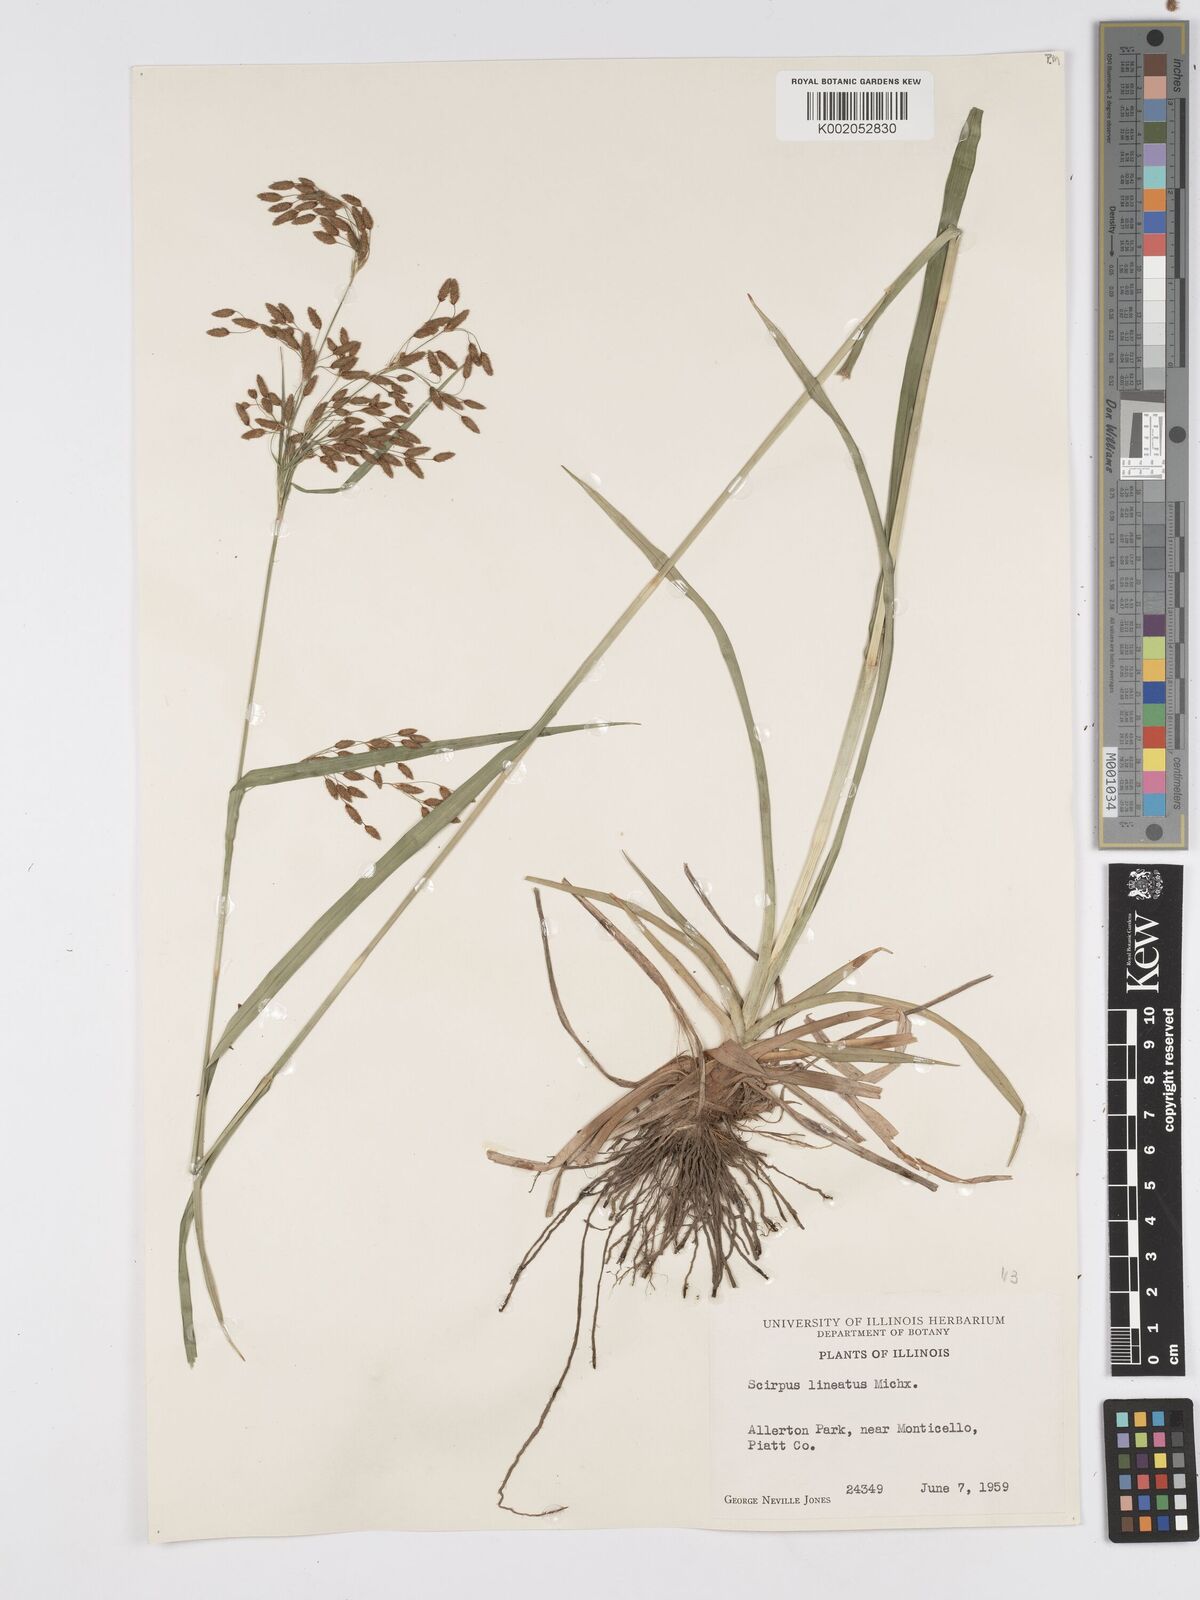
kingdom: Plantae
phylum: Tracheophyta
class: Liliopsida
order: Poales
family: Cyperaceae
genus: Scirpus
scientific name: Scirpus lineatus
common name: Drooping bulrush
